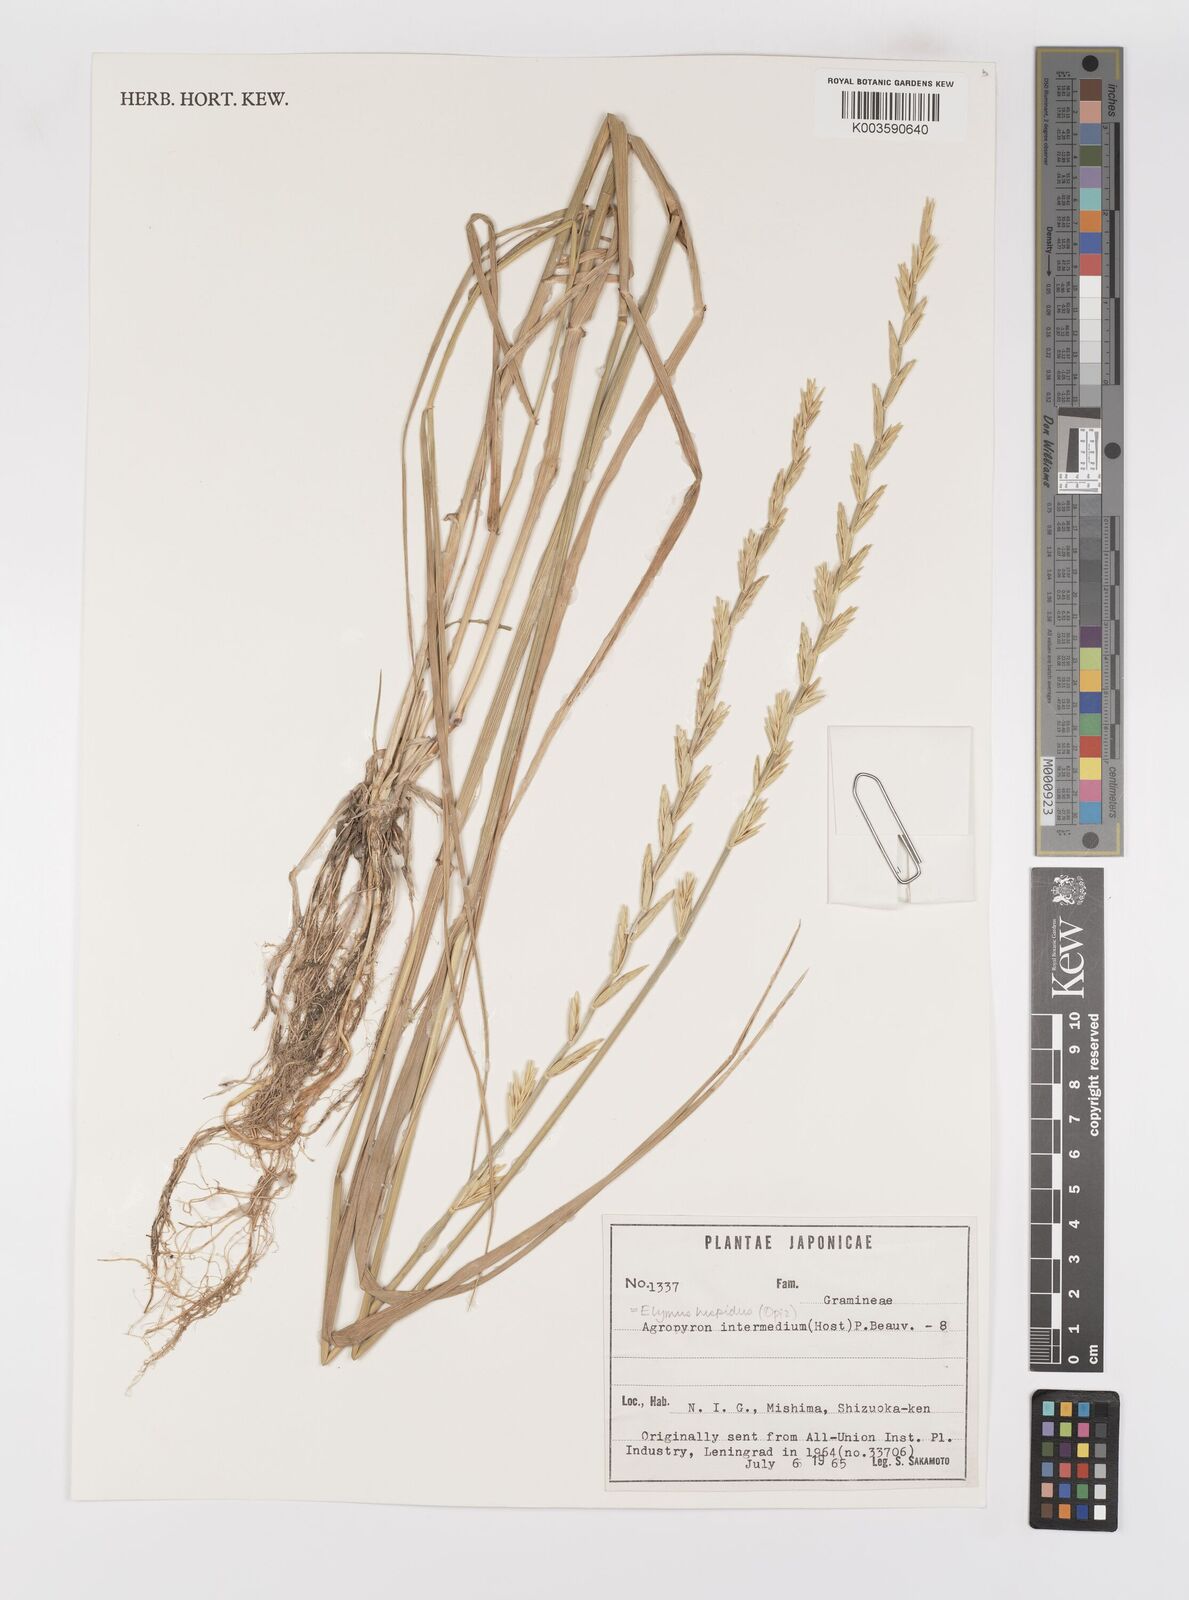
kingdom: Plantae
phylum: Tracheophyta
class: Liliopsida
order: Poales
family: Poaceae
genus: Thinopyrum
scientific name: Thinopyrum intermedium
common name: Intermediate wheatgrass
